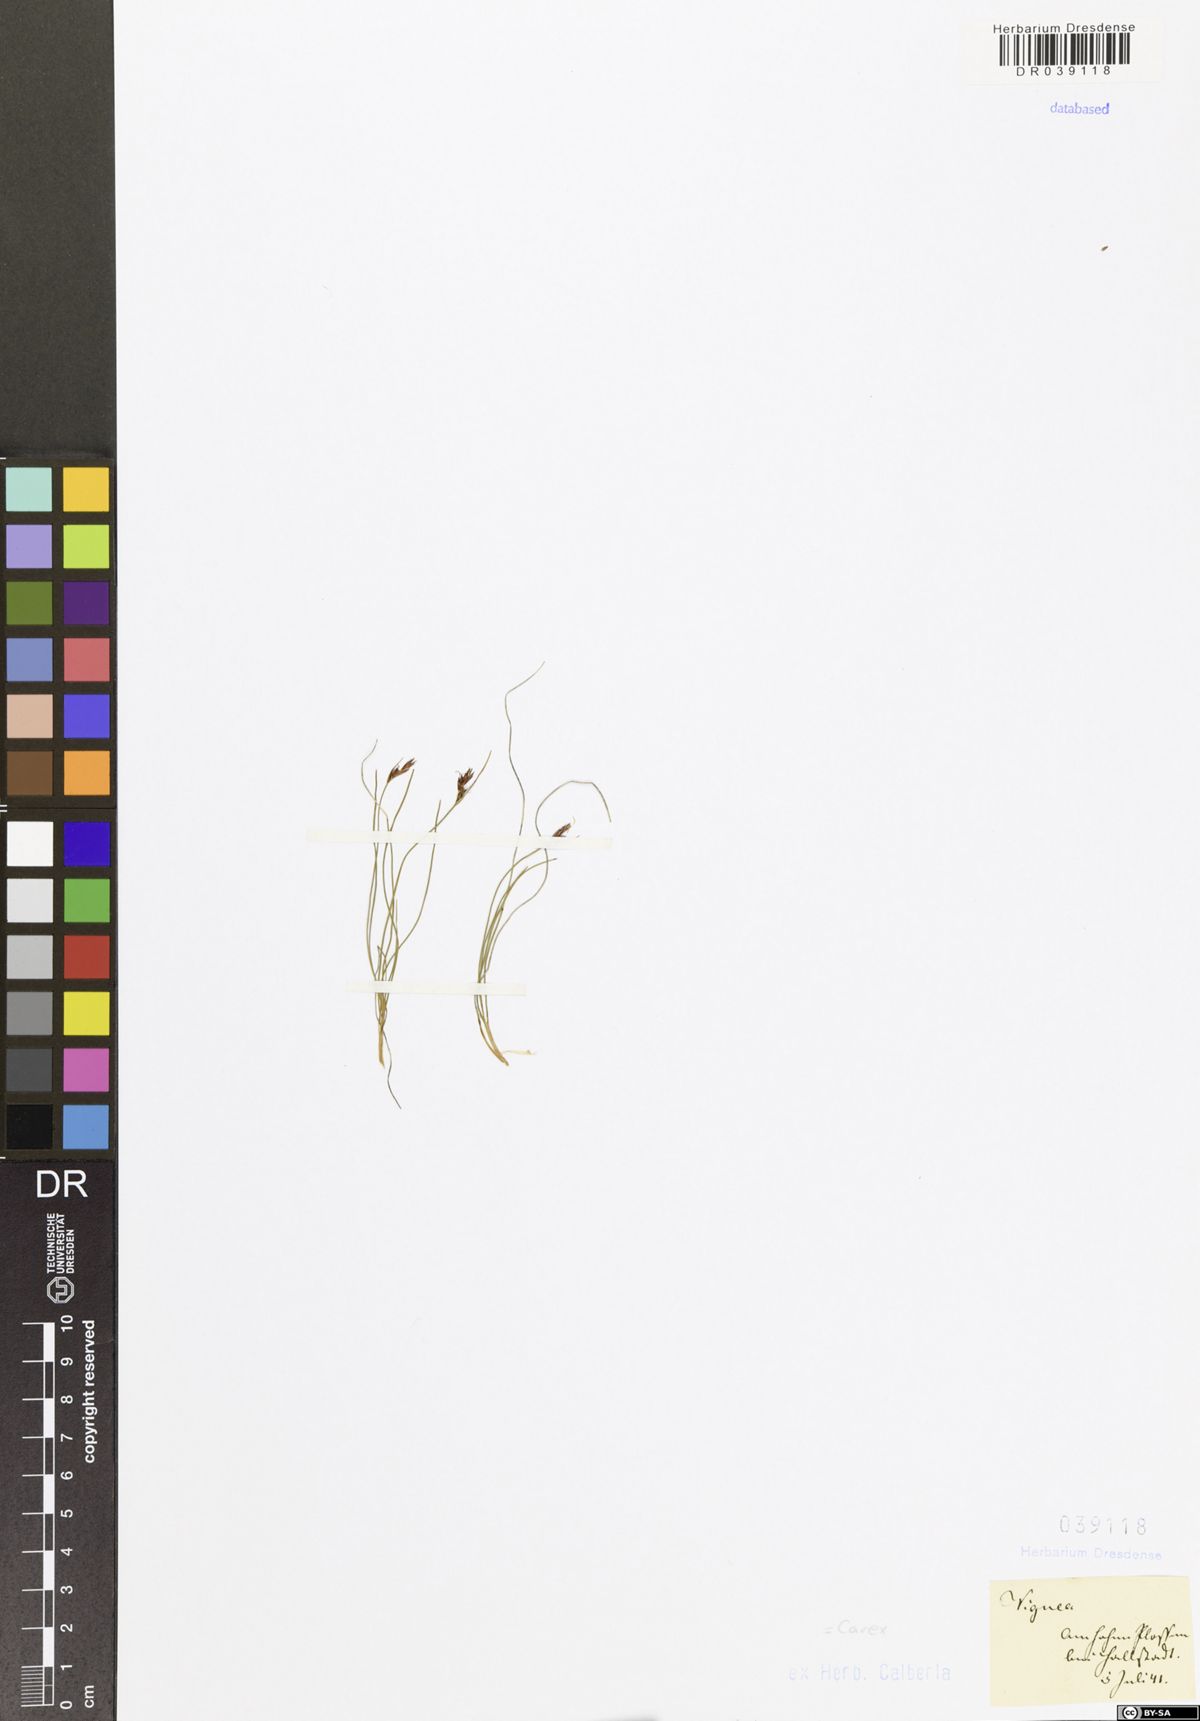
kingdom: Plantae
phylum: Tracheophyta
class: Liliopsida
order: Poales
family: Cyperaceae
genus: Carex
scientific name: Carex
